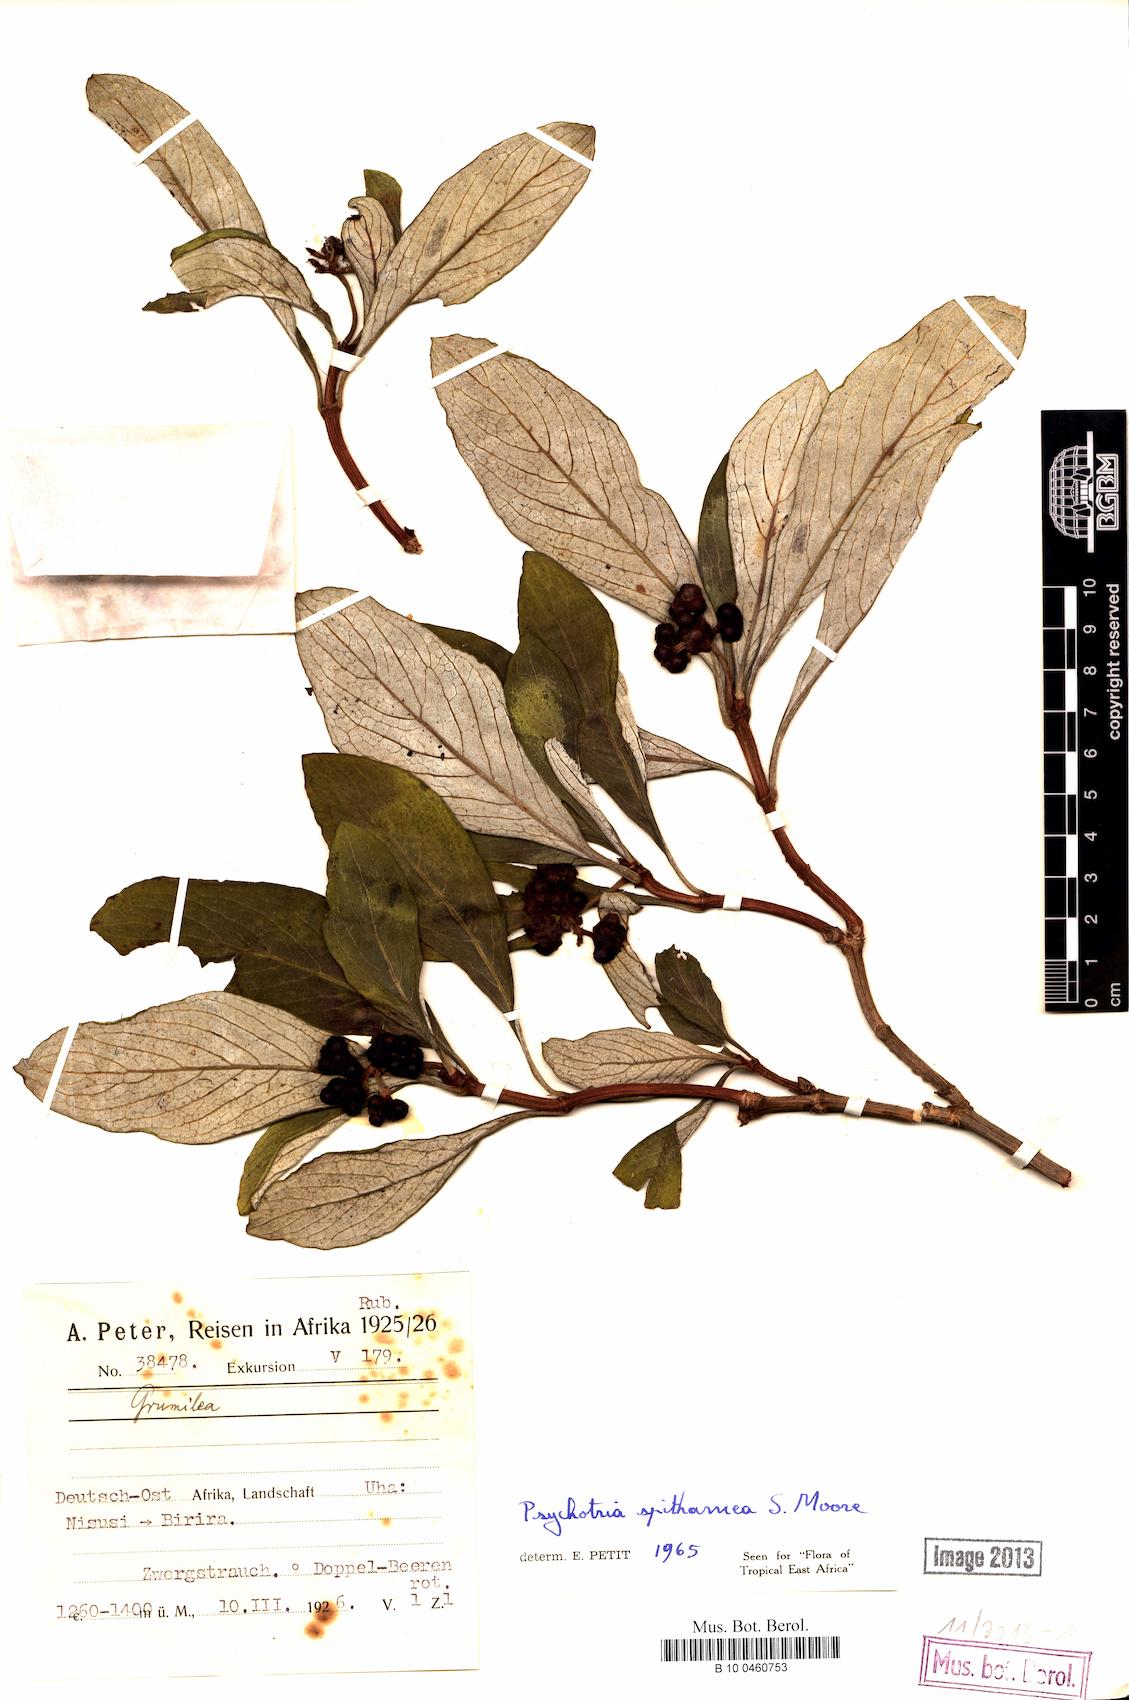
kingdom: Plantae
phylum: Tracheophyta
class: Magnoliopsida
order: Gentianales
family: Rubiaceae
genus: Psychotria
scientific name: Psychotria spithamea
